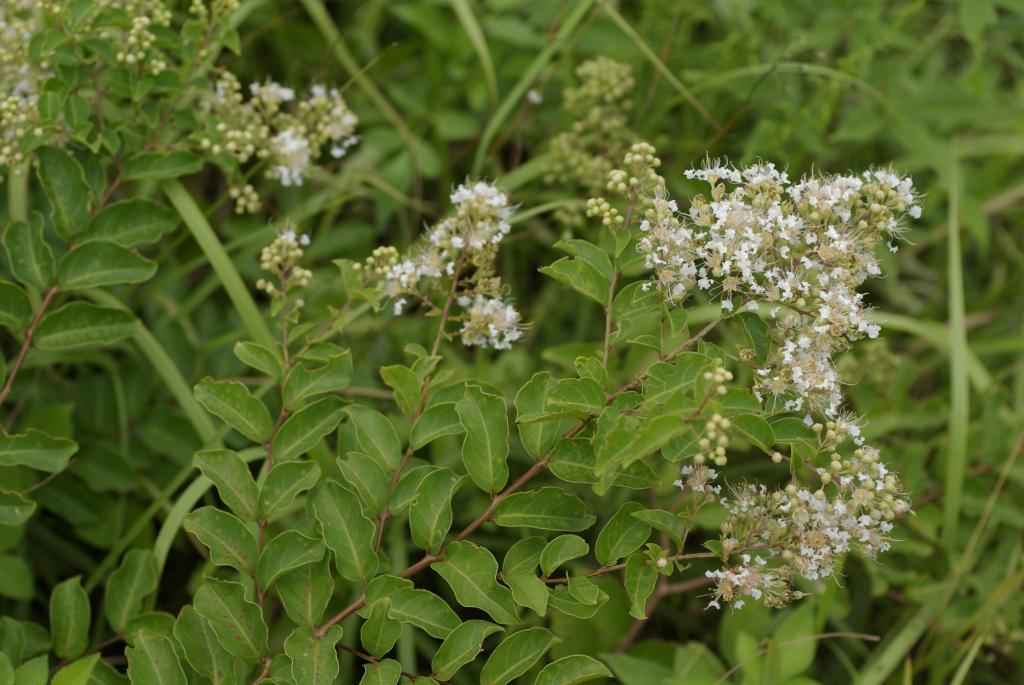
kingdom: Plantae
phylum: Tracheophyta
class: Magnoliopsida
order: Myrtales
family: Lythraceae
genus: Lagerstroemia
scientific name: Lagerstroemia subcostata
